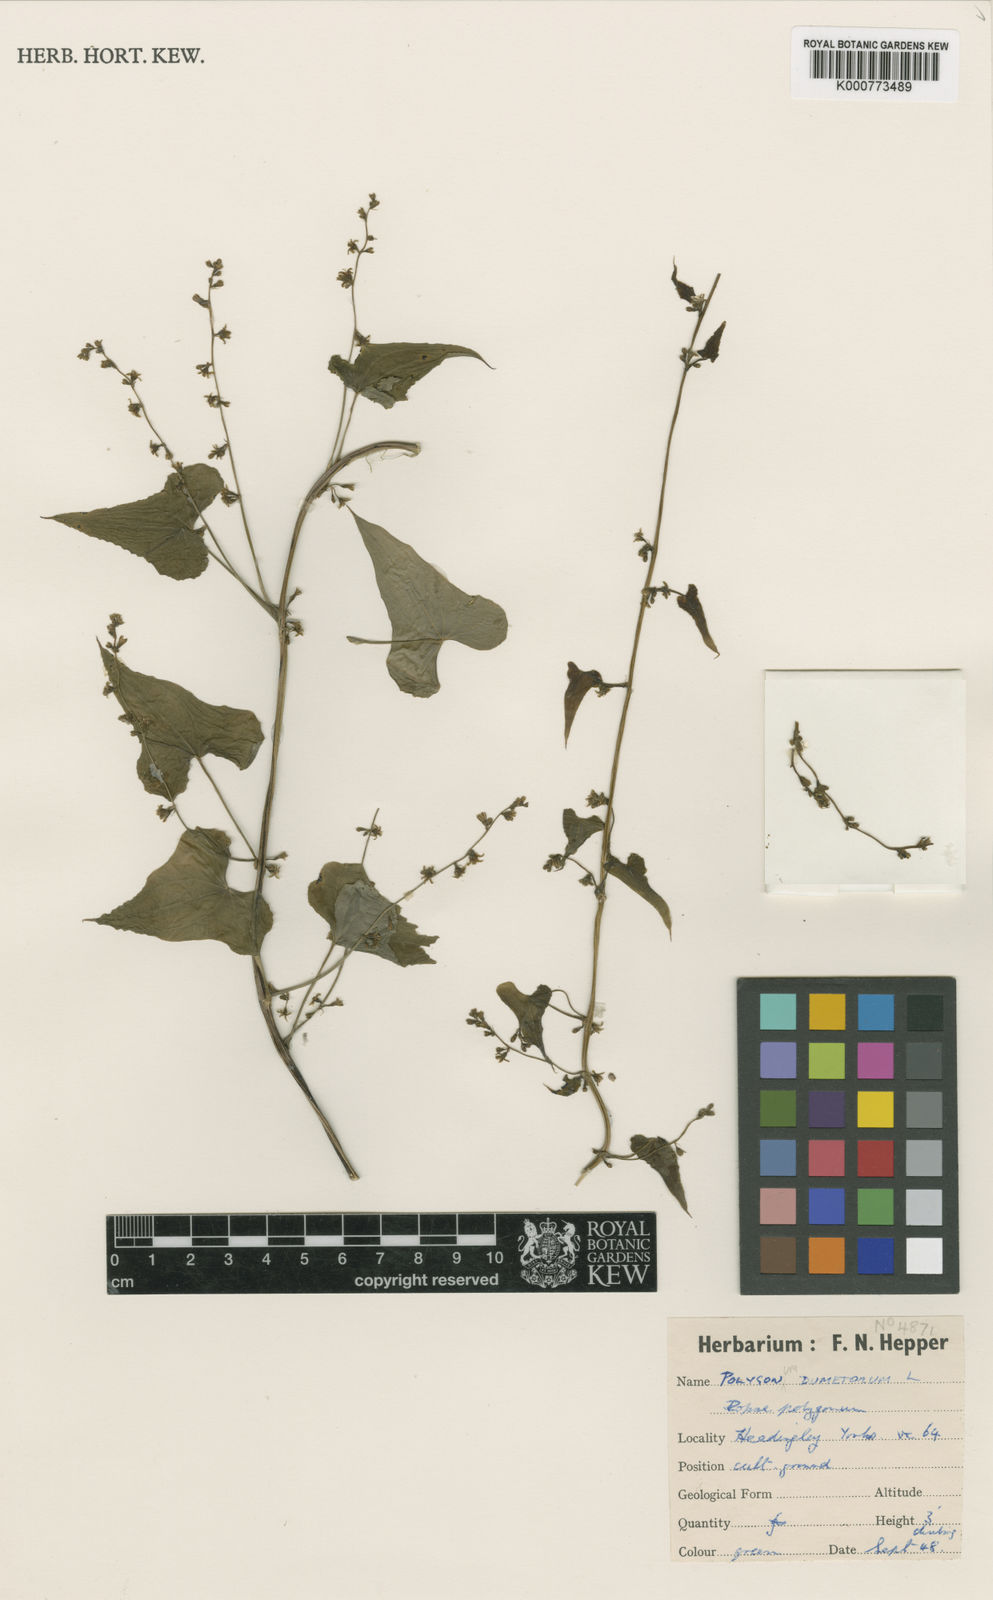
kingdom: Plantae
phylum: Tracheophyta
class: Magnoliopsida
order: Caryophyllales
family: Polygonaceae
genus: Fallopia
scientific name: Fallopia dumetorum
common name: Copse-bindweed
